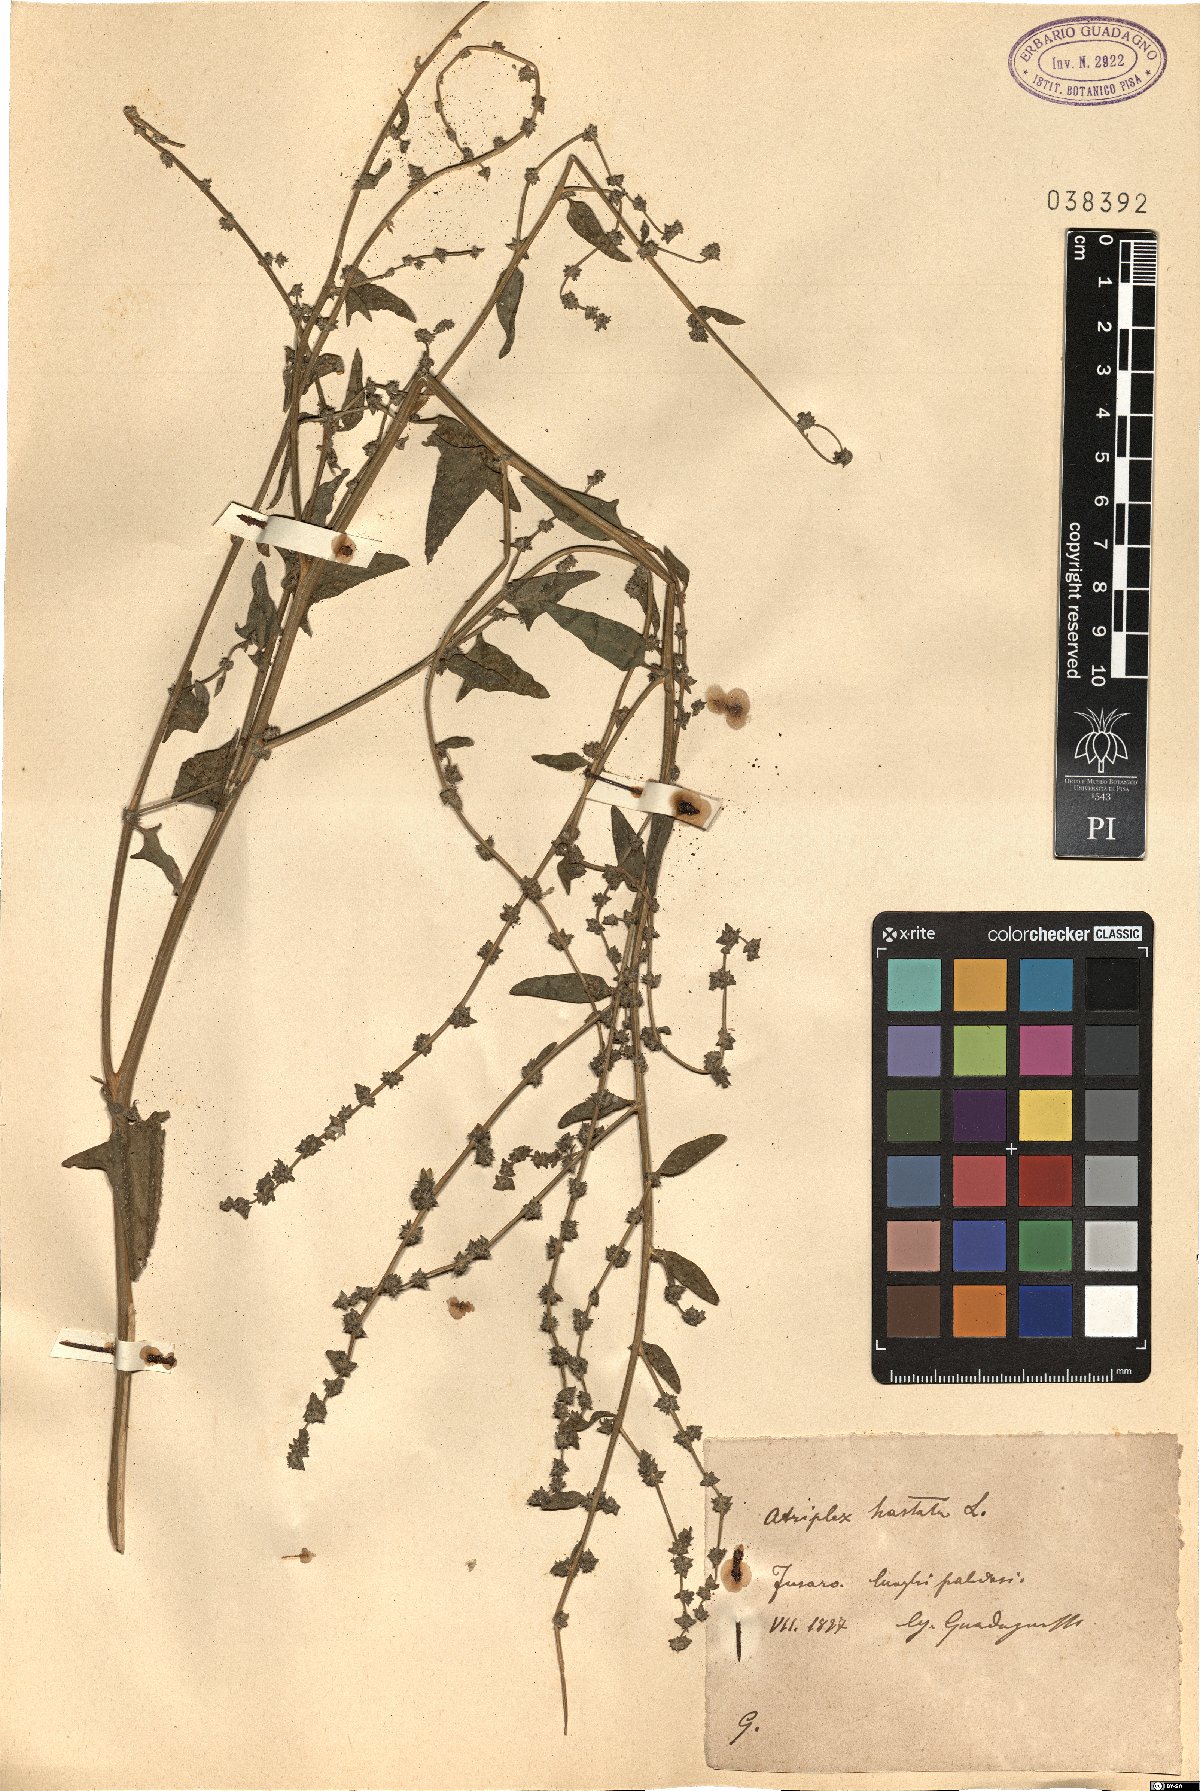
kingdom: Plantae
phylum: Tracheophyta
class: Magnoliopsida
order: Caryophyllales
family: Amaranthaceae
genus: Atriplex
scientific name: Atriplex calotheca
